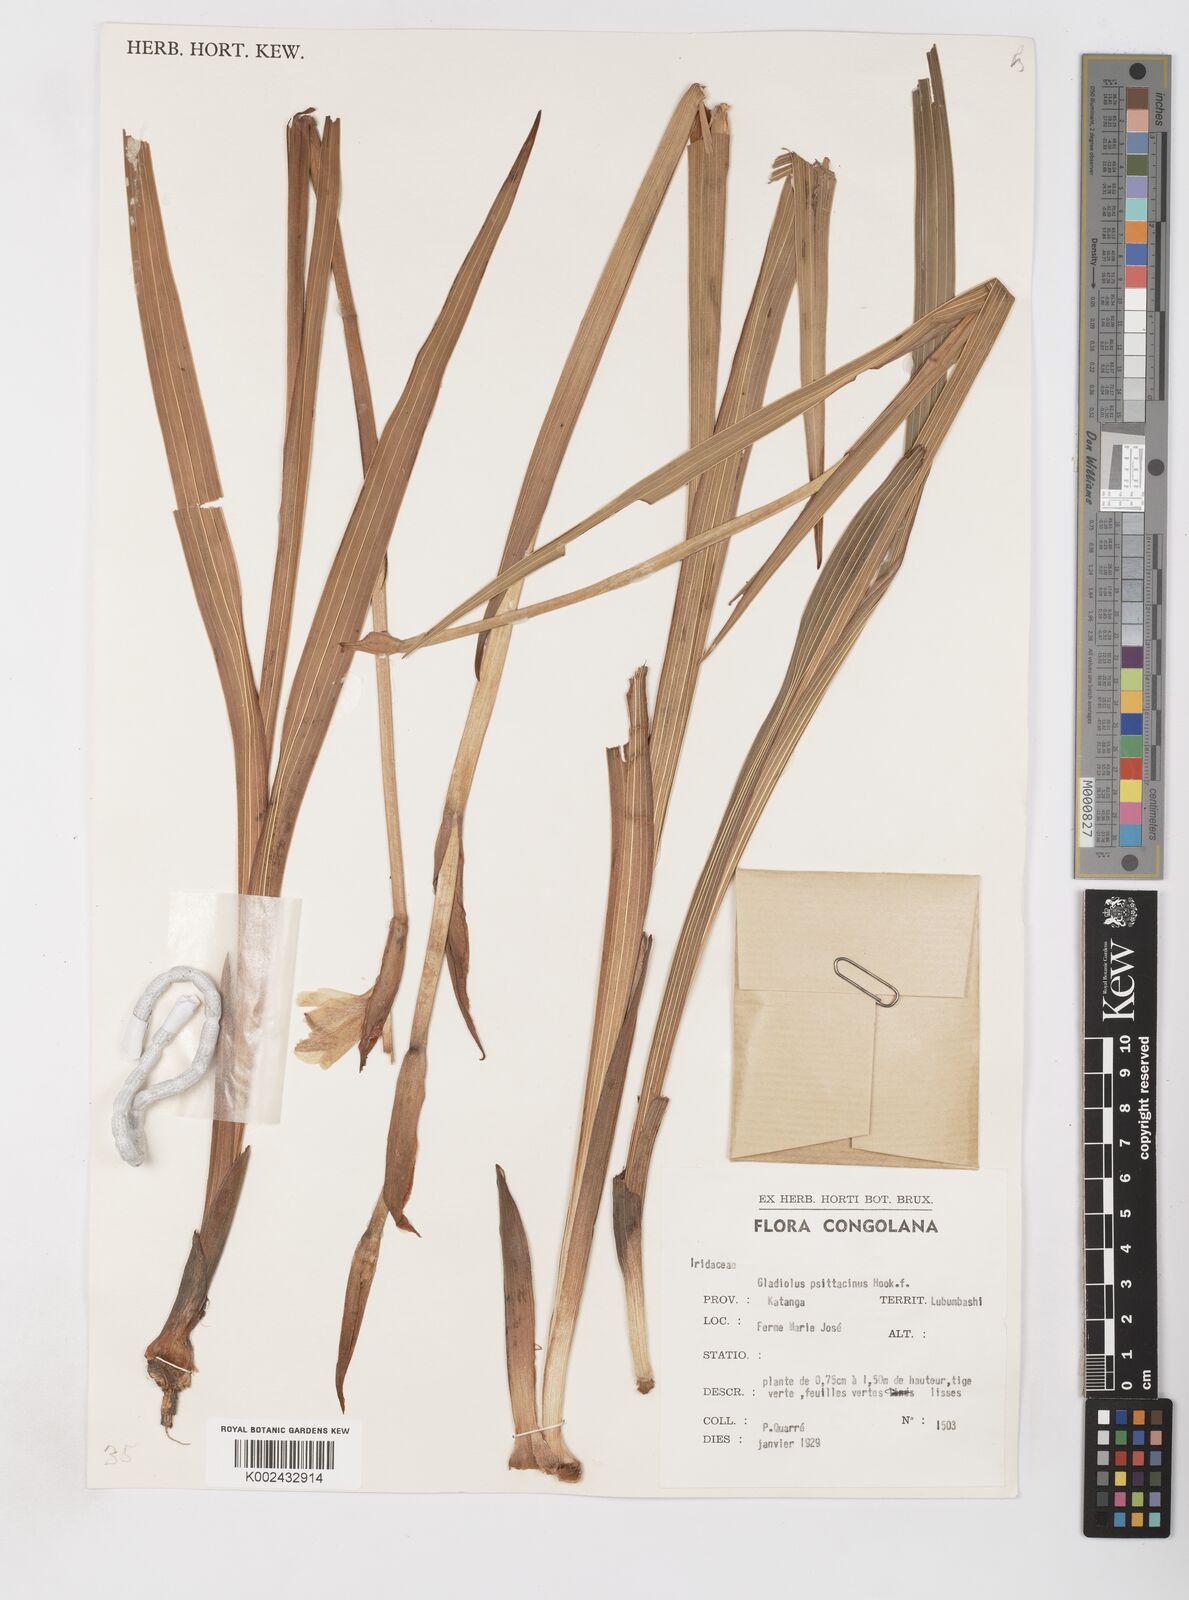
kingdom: Plantae
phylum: Tracheophyta
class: Liliopsida
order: Asparagales
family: Iridaceae
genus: Gladiolus
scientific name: Gladiolus dalenii
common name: Cornflag
